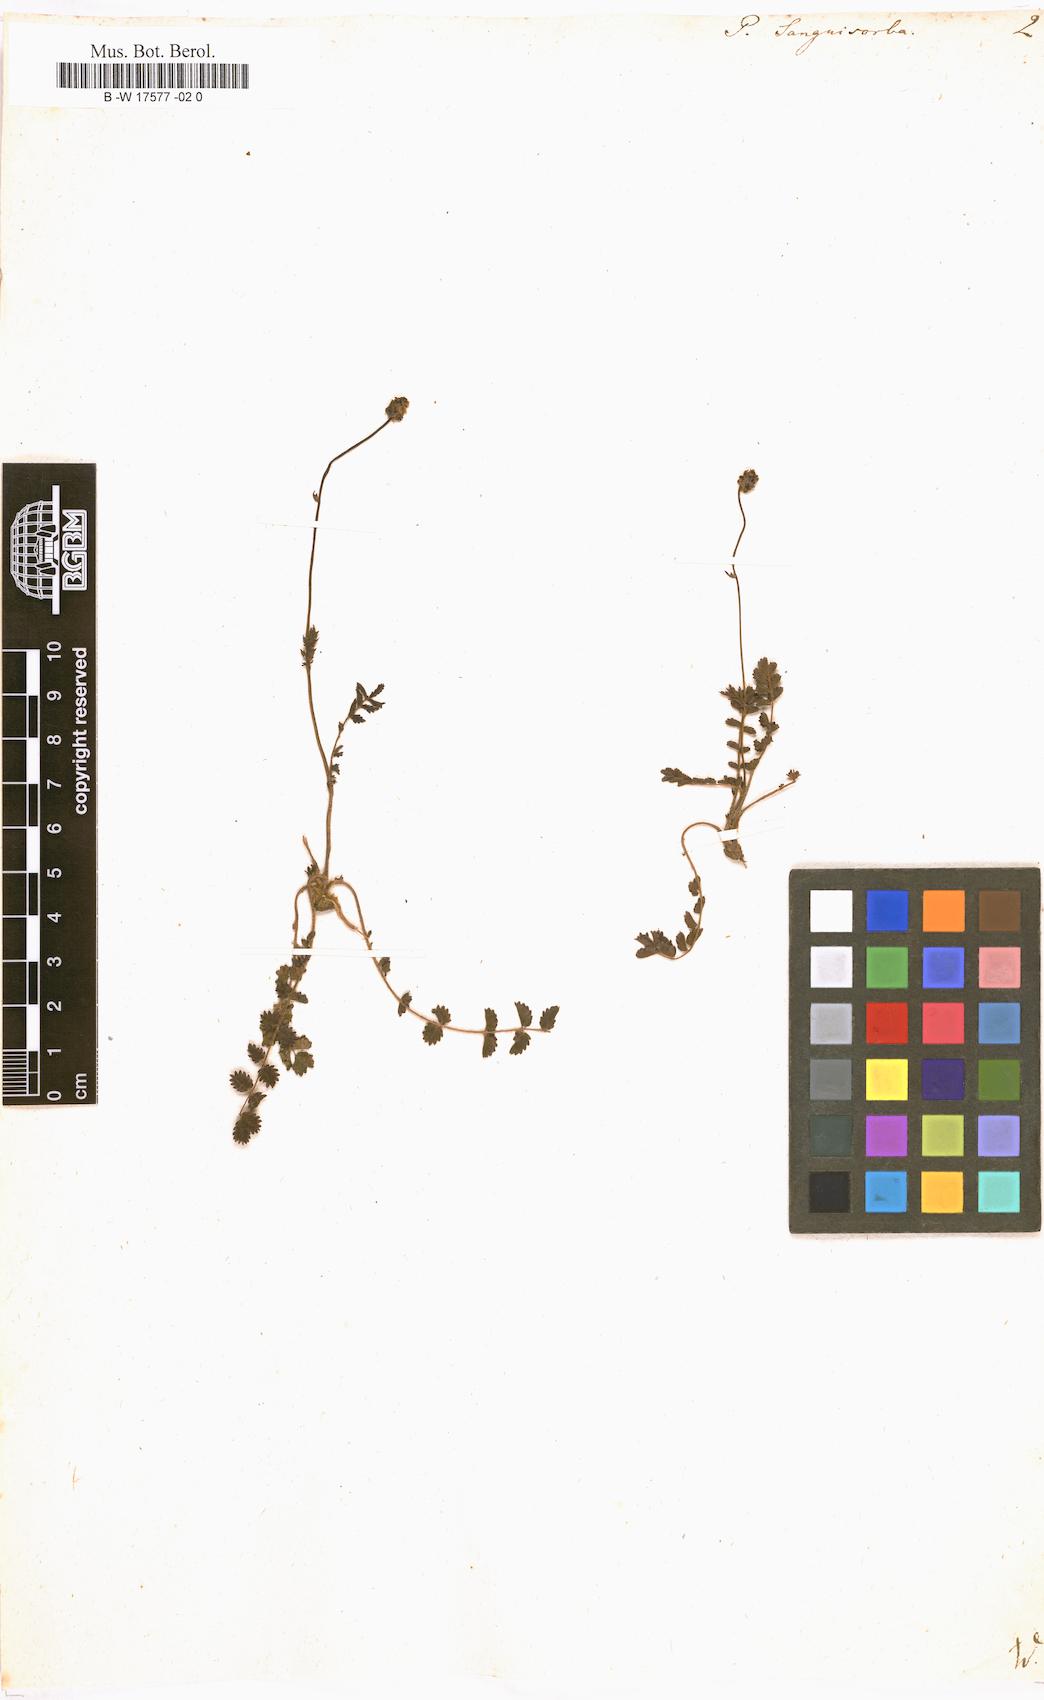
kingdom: Plantae
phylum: Tracheophyta
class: Magnoliopsida
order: Rosales
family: Rosaceae
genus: Poterium
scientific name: Poterium sanguisorba
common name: Salad burnet
